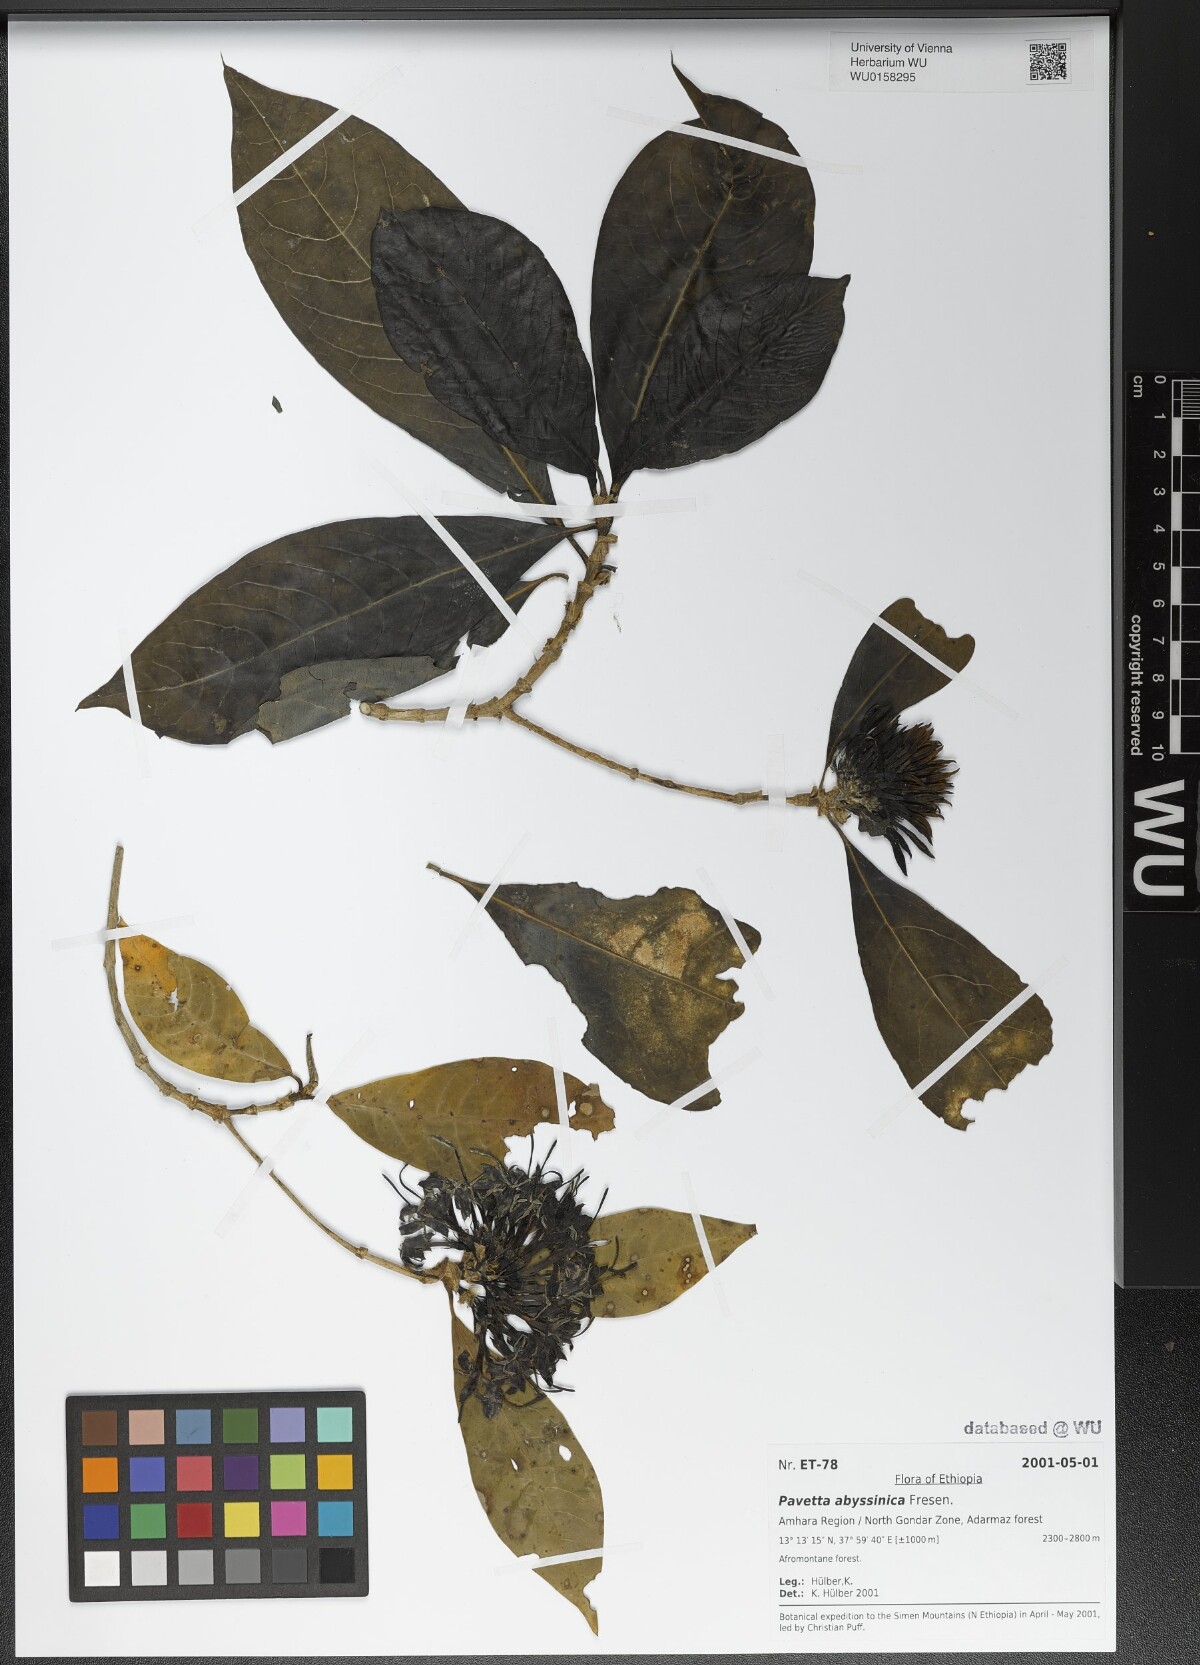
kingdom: Plantae
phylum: Tracheophyta
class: Magnoliopsida
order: Gentianales
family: Rubiaceae
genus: Pavetta
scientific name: Pavetta abyssinica
